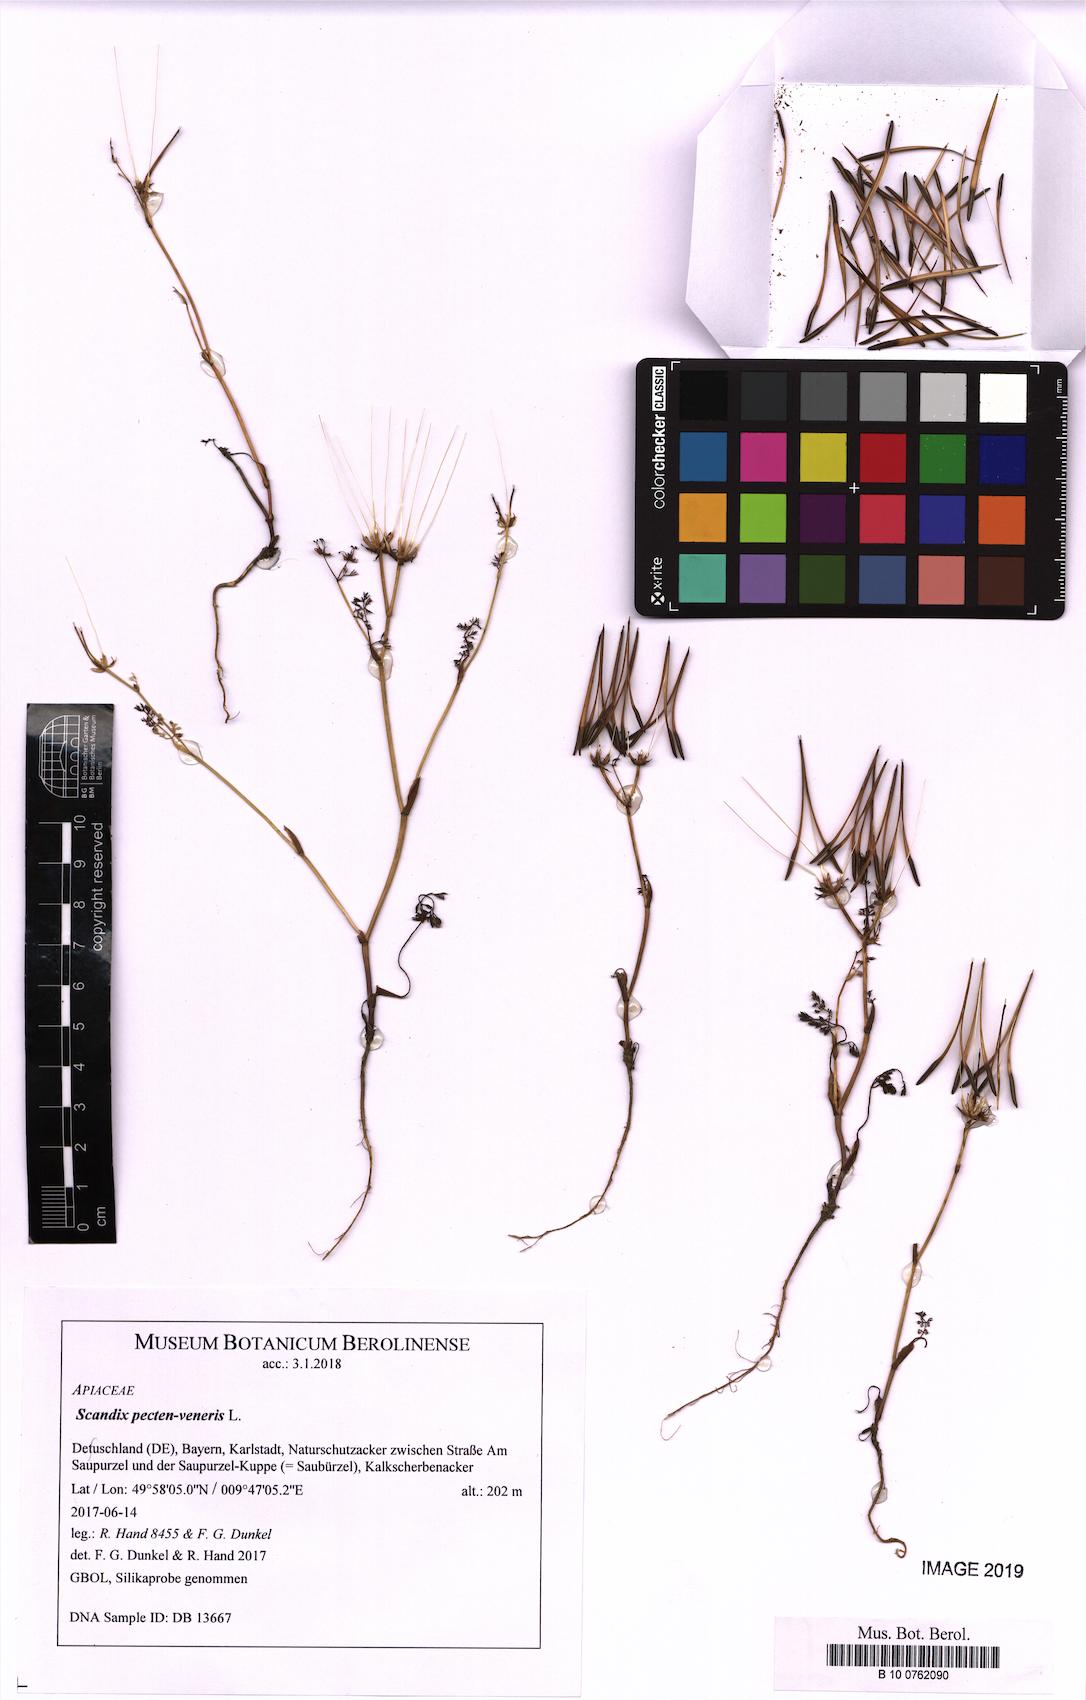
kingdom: Plantae
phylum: Tracheophyta
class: Magnoliopsida
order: Apiales
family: Apiaceae
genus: Scandix
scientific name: Scandix pecten-veneris
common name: Shepherd's-needle
